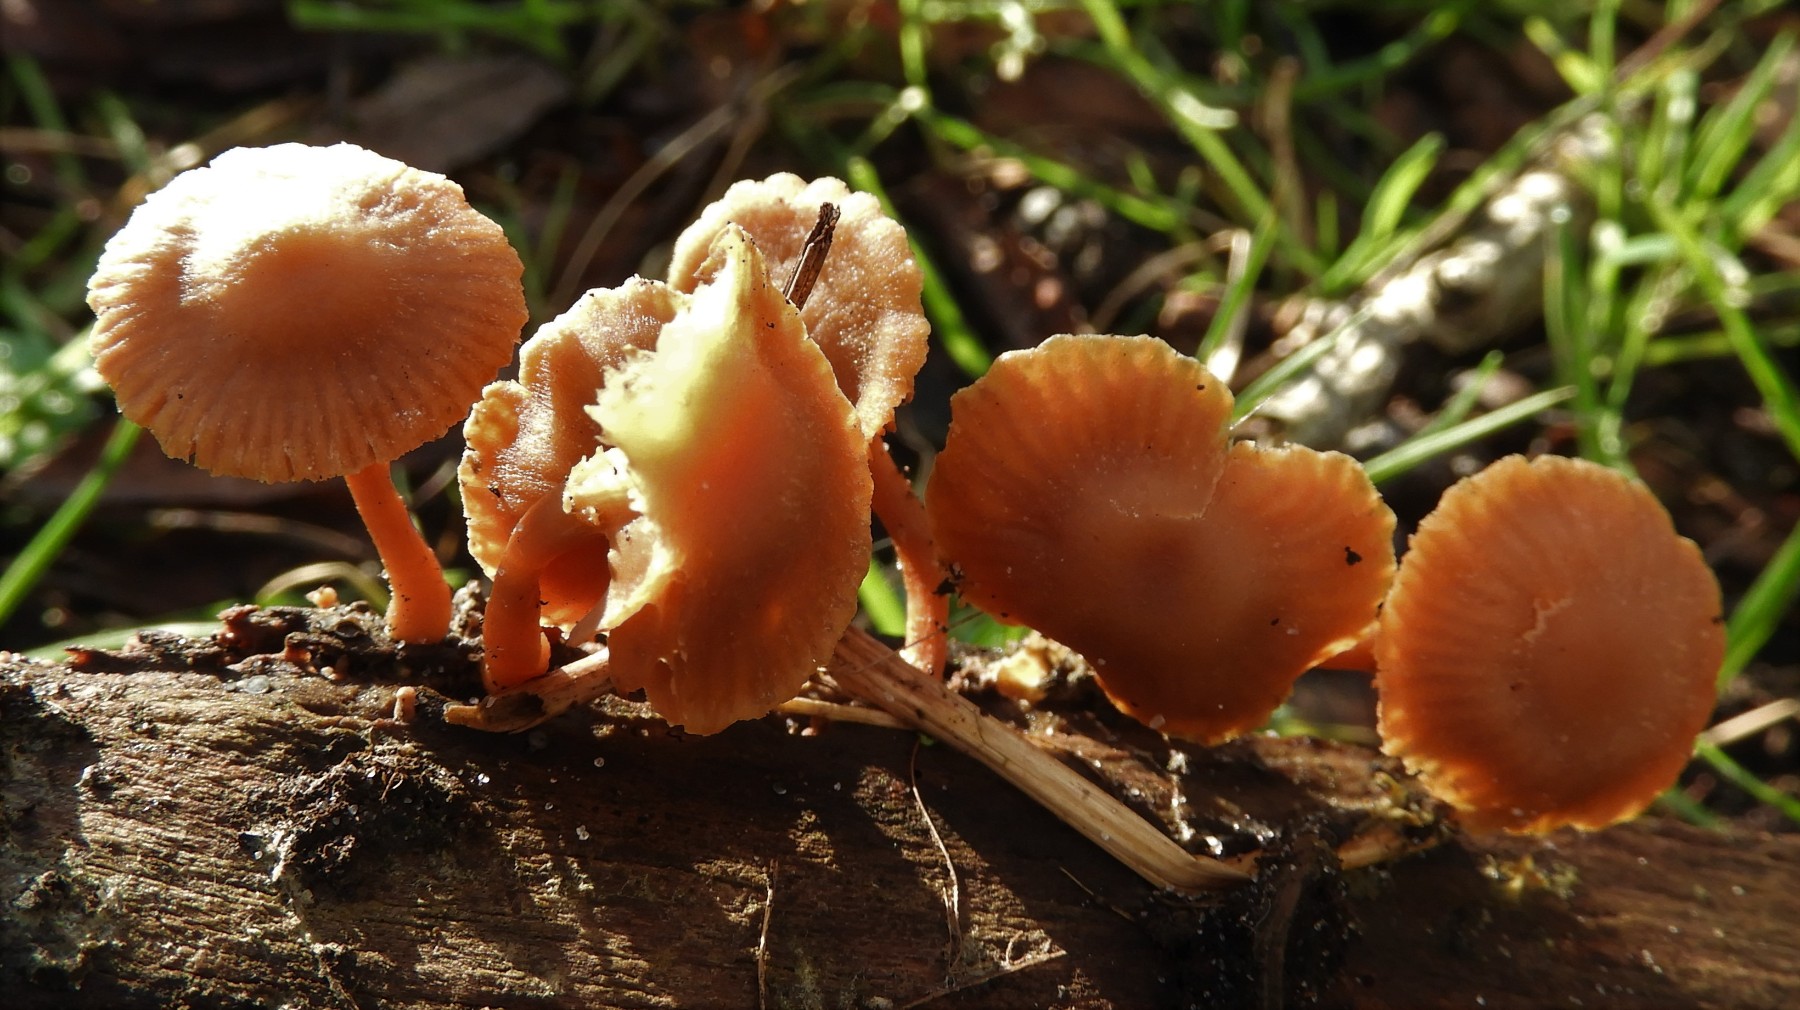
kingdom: Fungi
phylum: Basidiomycota
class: Agaricomycetes
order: Agaricales
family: Tubariaceae
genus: Tubaria
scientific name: Tubaria furfuracea
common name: kliddet fnughat
